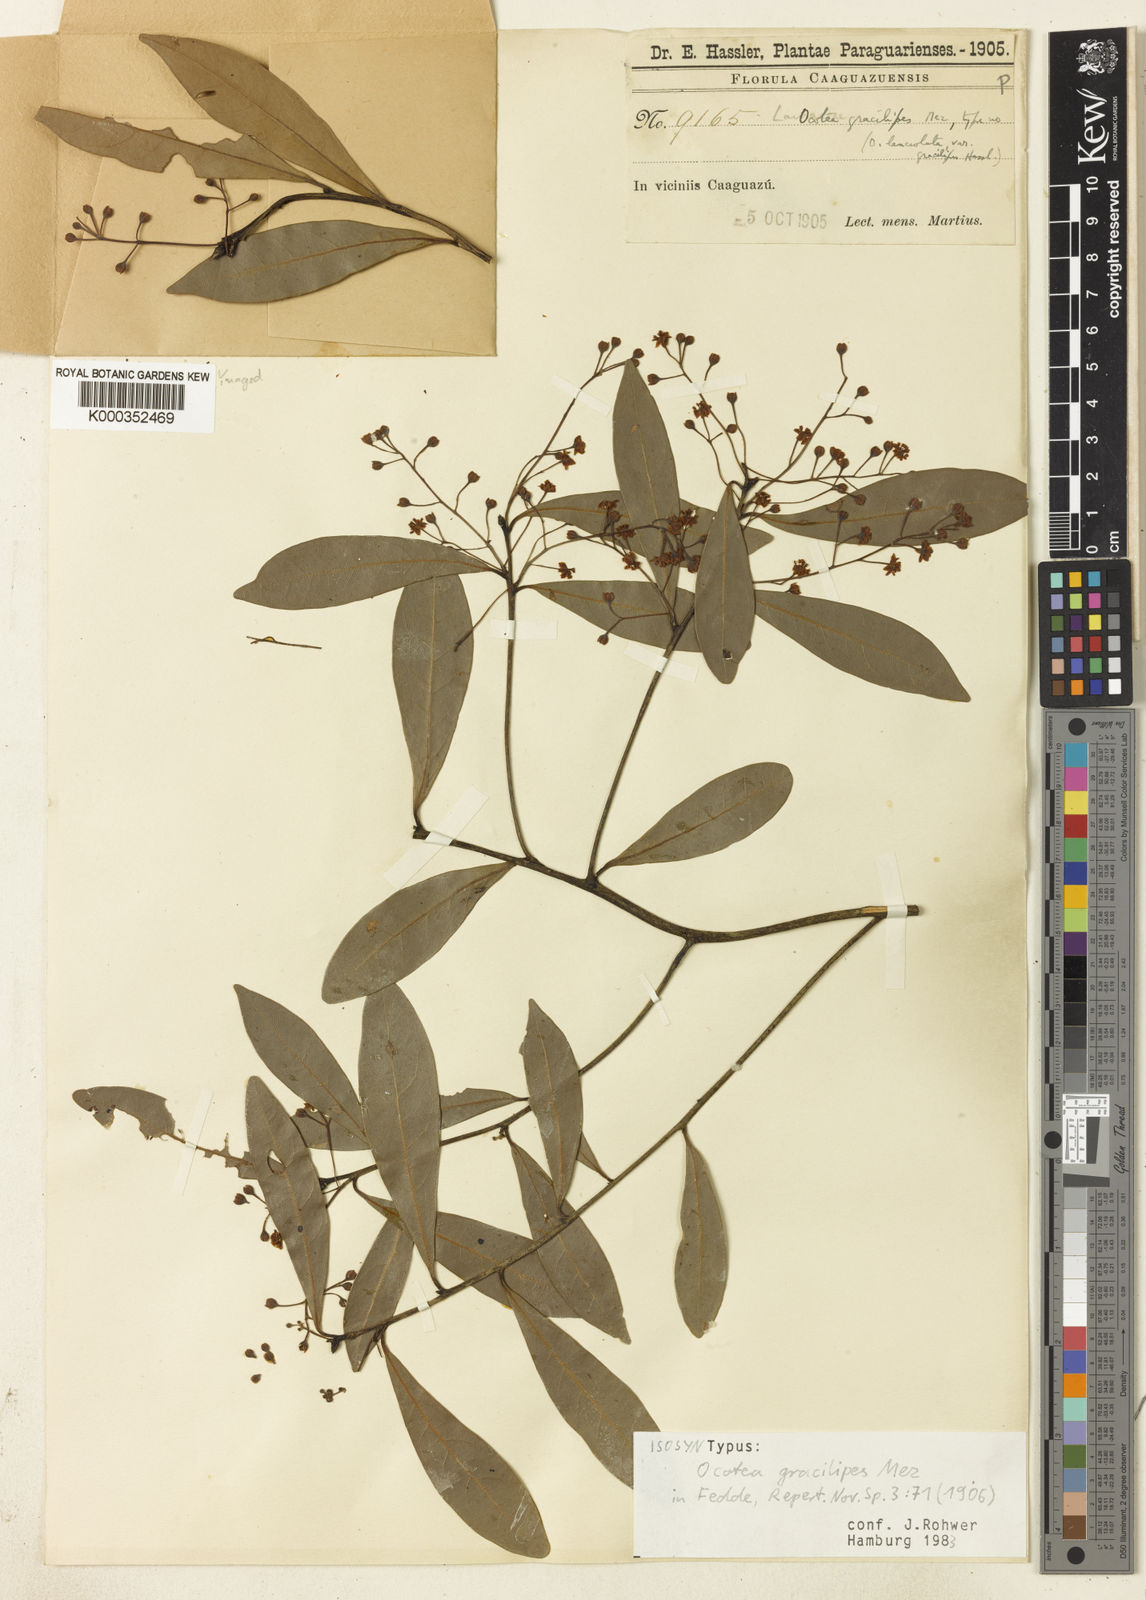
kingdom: Plantae
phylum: Tracheophyta
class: Magnoliopsida
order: Laurales
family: Lauraceae
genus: Ocotea
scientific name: Ocotea lancifolia
